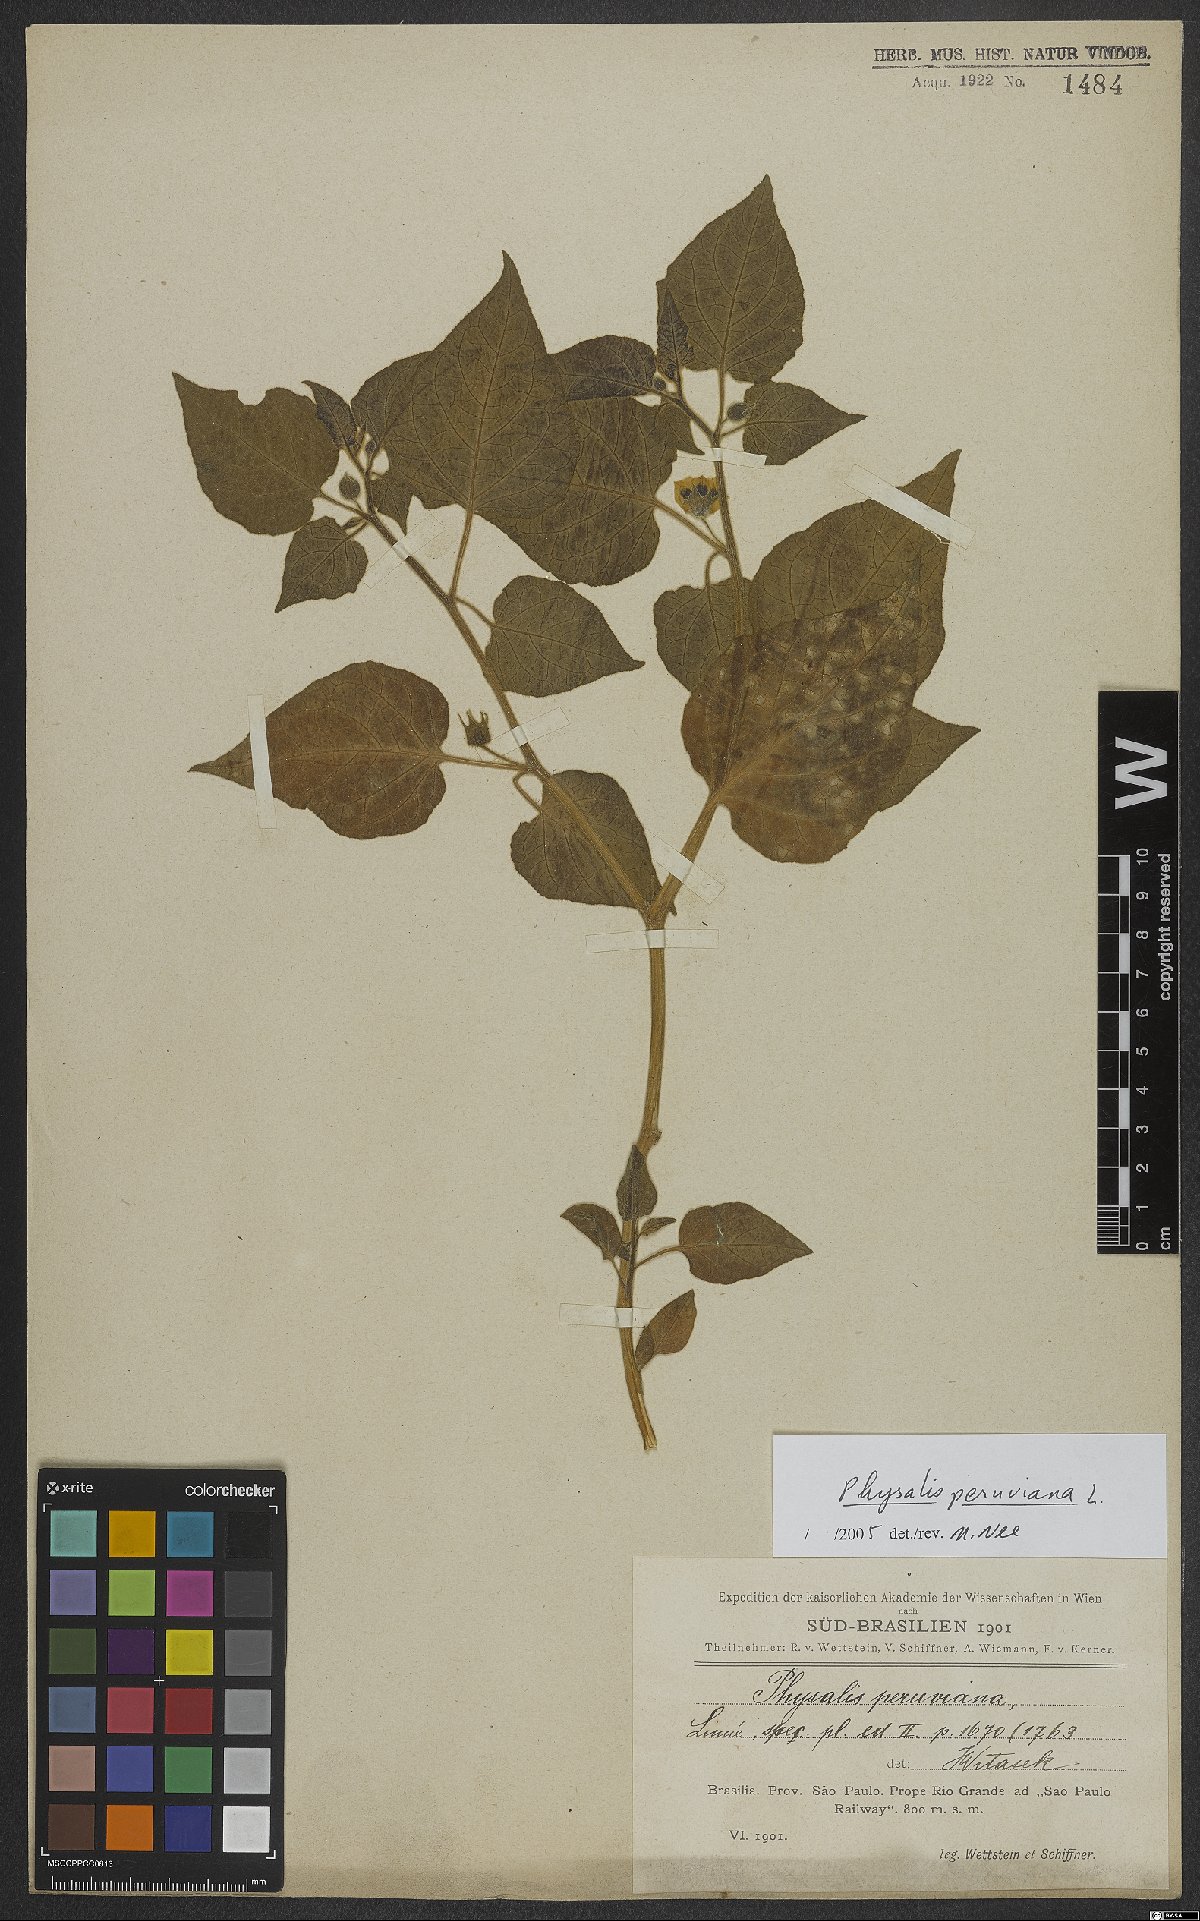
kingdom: Plantae
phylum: Tracheophyta
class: Magnoliopsida
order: Solanales
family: Solanaceae
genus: Physalis
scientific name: Physalis peruviana
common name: Cape-gooseberry
